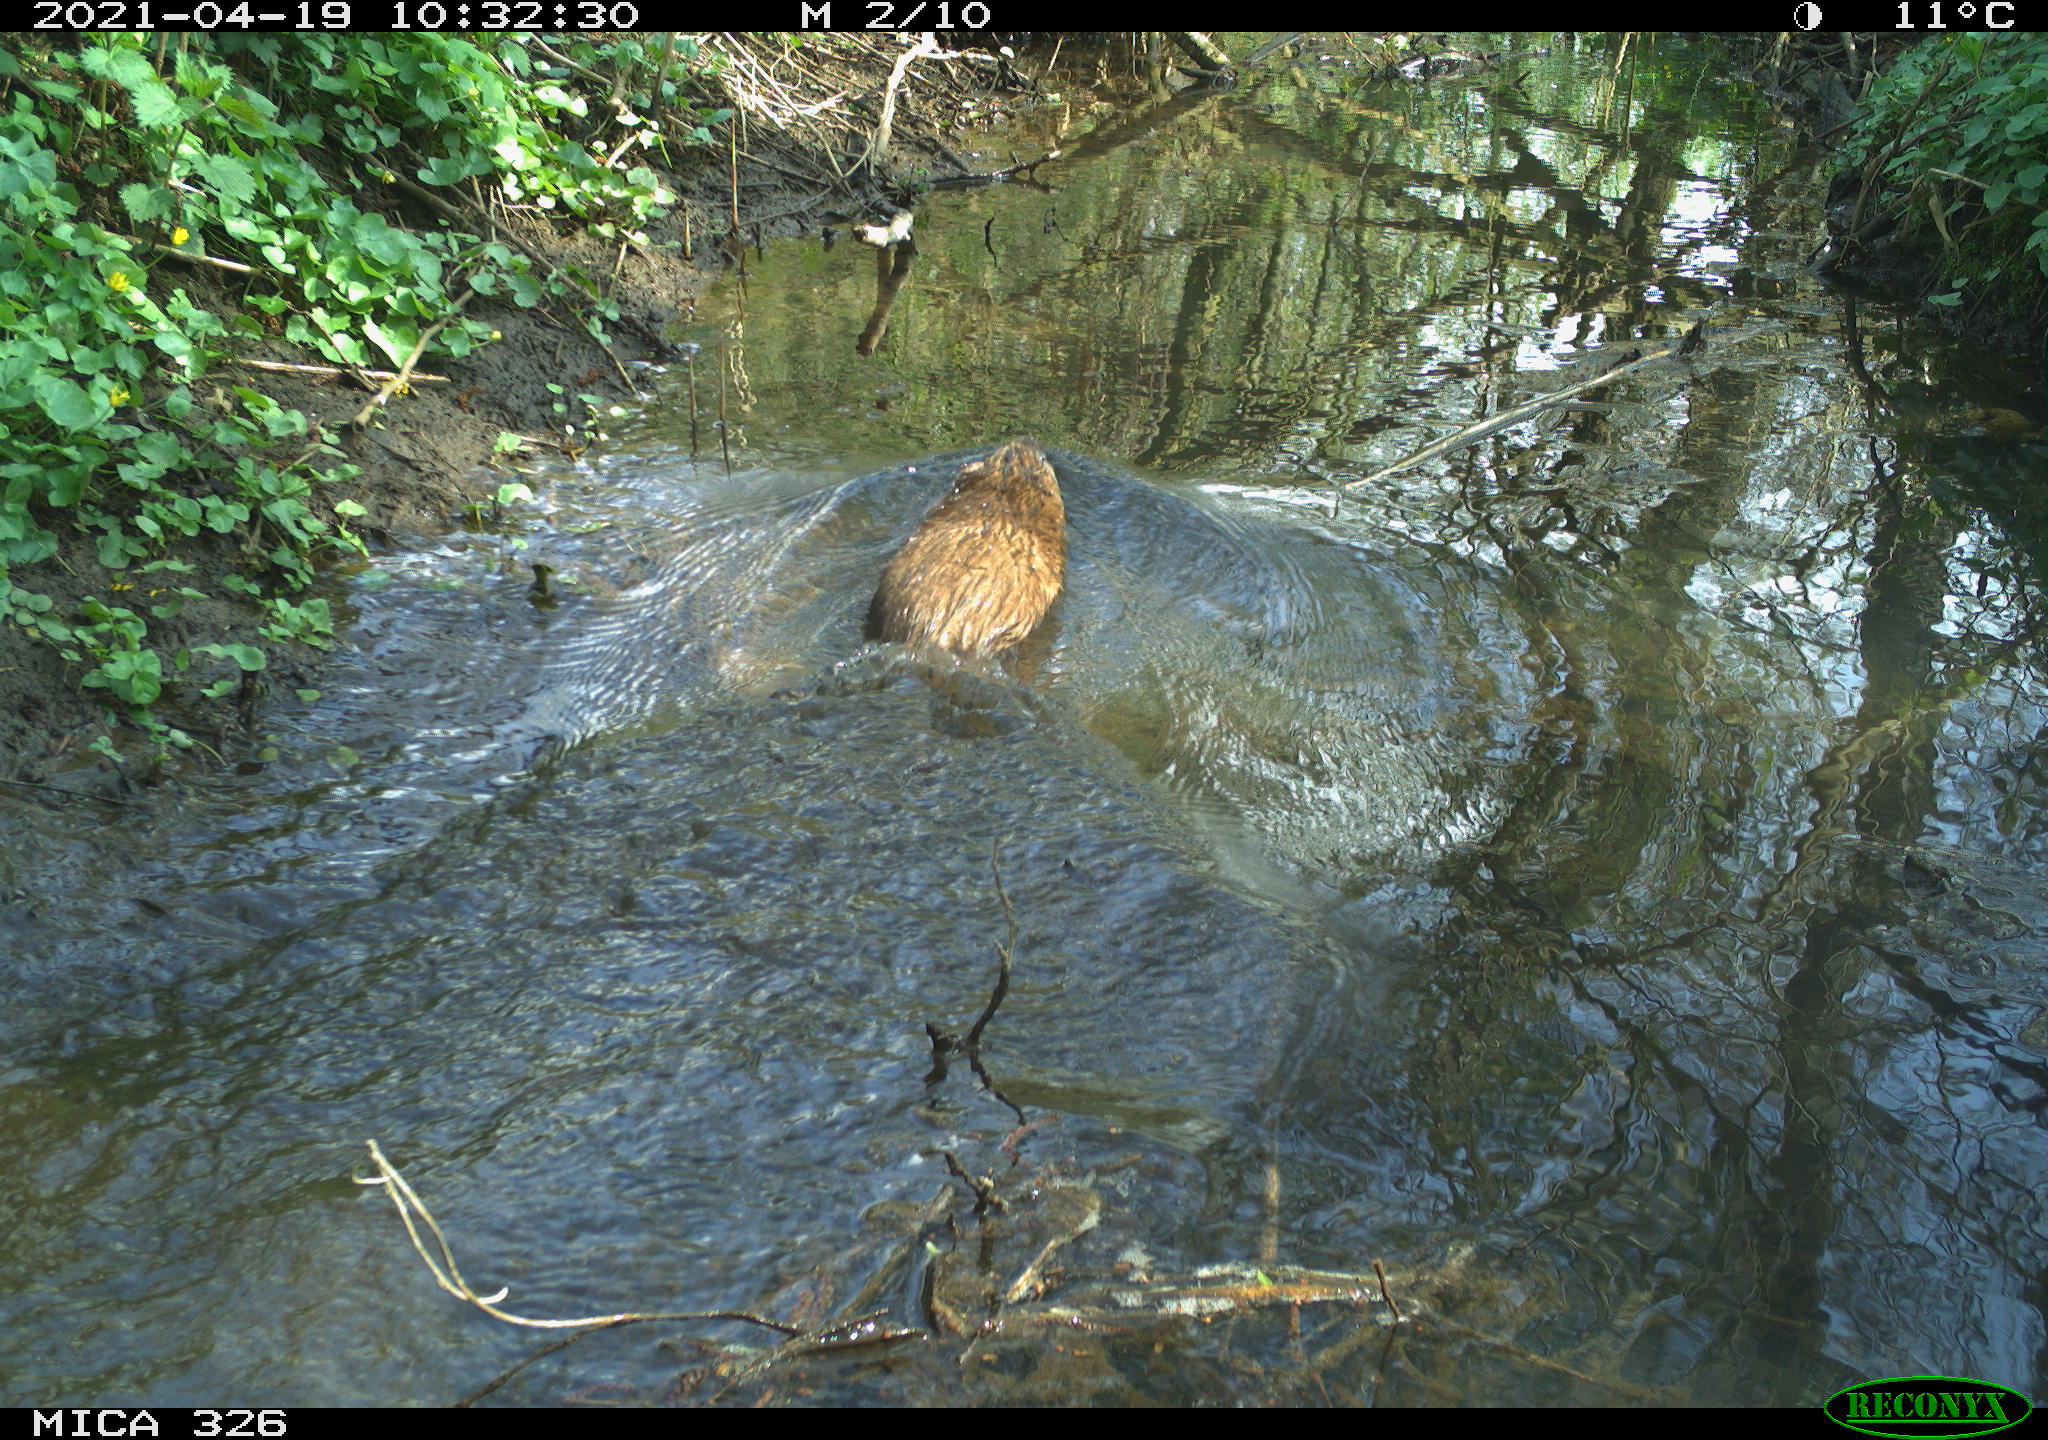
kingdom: Animalia
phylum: Chordata
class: Mammalia
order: Rodentia
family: Cricetidae
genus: Ondatra
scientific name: Ondatra zibethicus
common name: Muskrat
